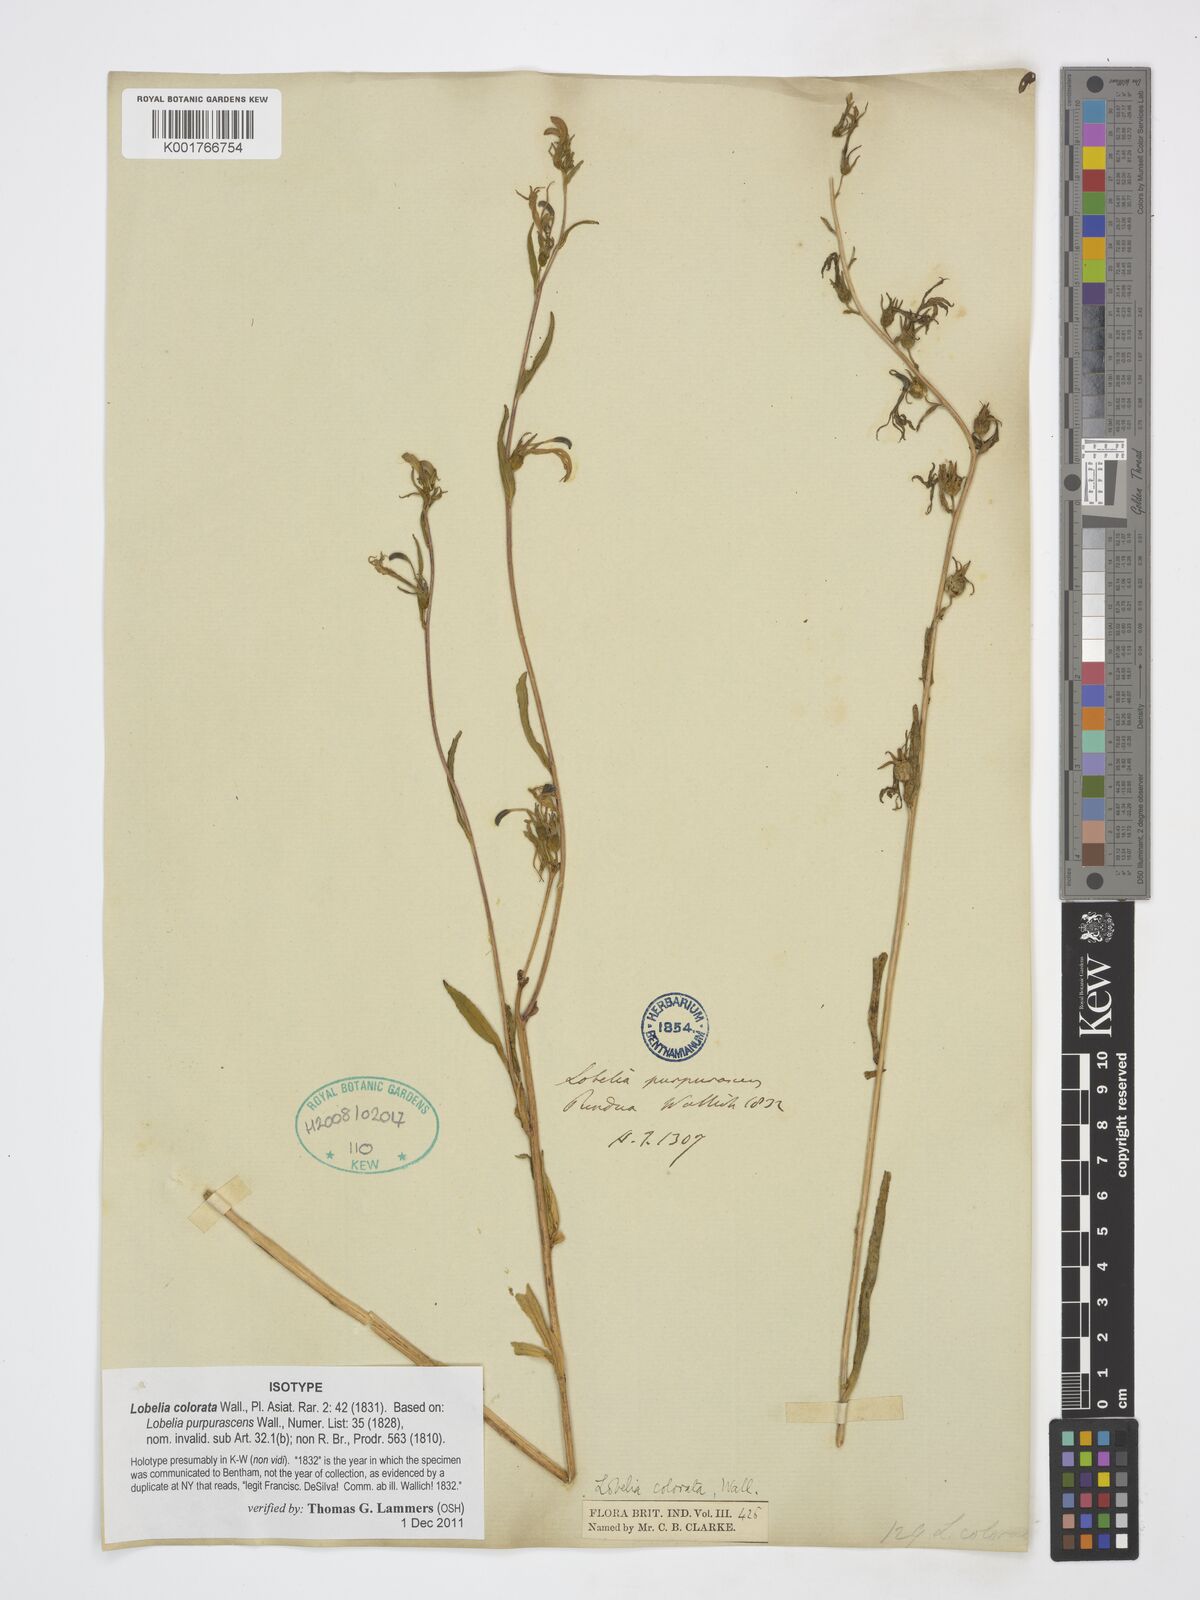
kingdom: Plantae
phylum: Tracheophyta
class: Magnoliopsida
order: Asterales
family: Campanulaceae
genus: Lobelia
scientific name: Lobelia nicotianifolia
